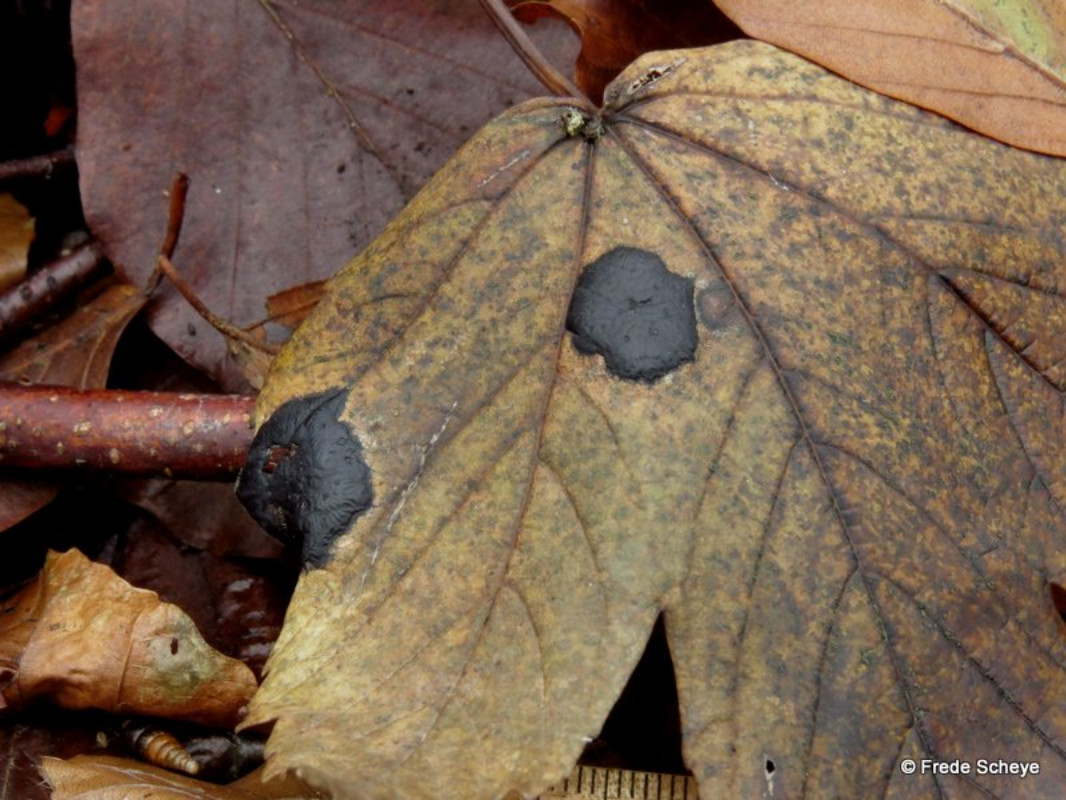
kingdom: Fungi
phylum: Ascomycota
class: Leotiomycetes
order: Rhytismatales
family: Rhytismataceae
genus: Rhytisma
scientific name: Rhytisma acerinum
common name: ahorn-rynkeplet
